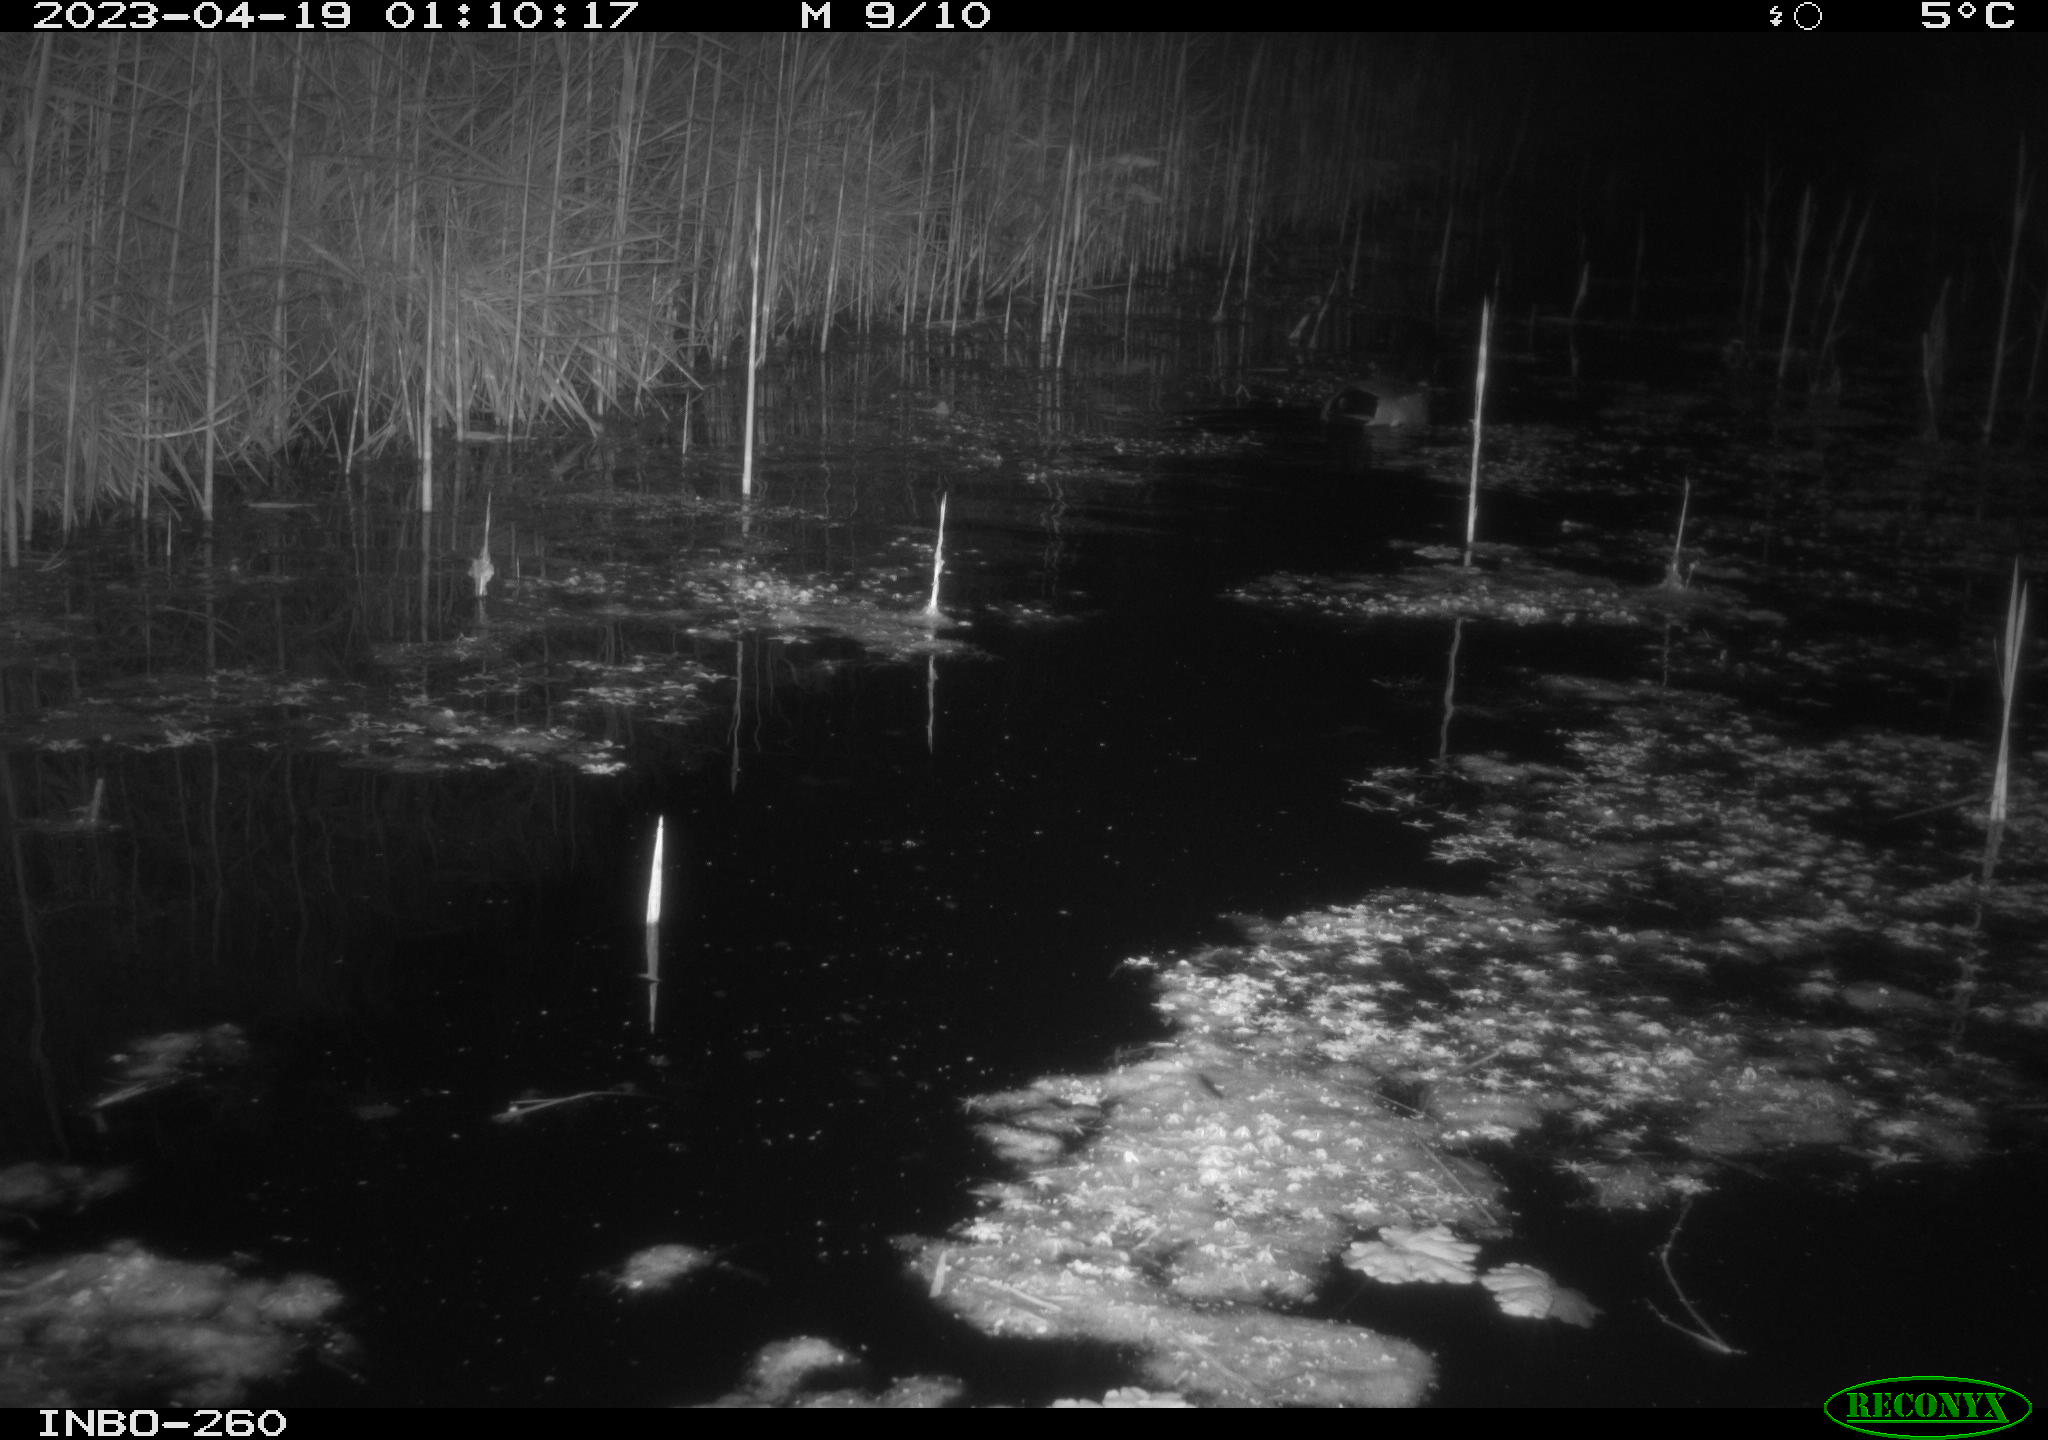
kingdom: Animalia
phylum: Chordata
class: Aves
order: Anseriformes
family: Anatidae
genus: Anas
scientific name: Anas
